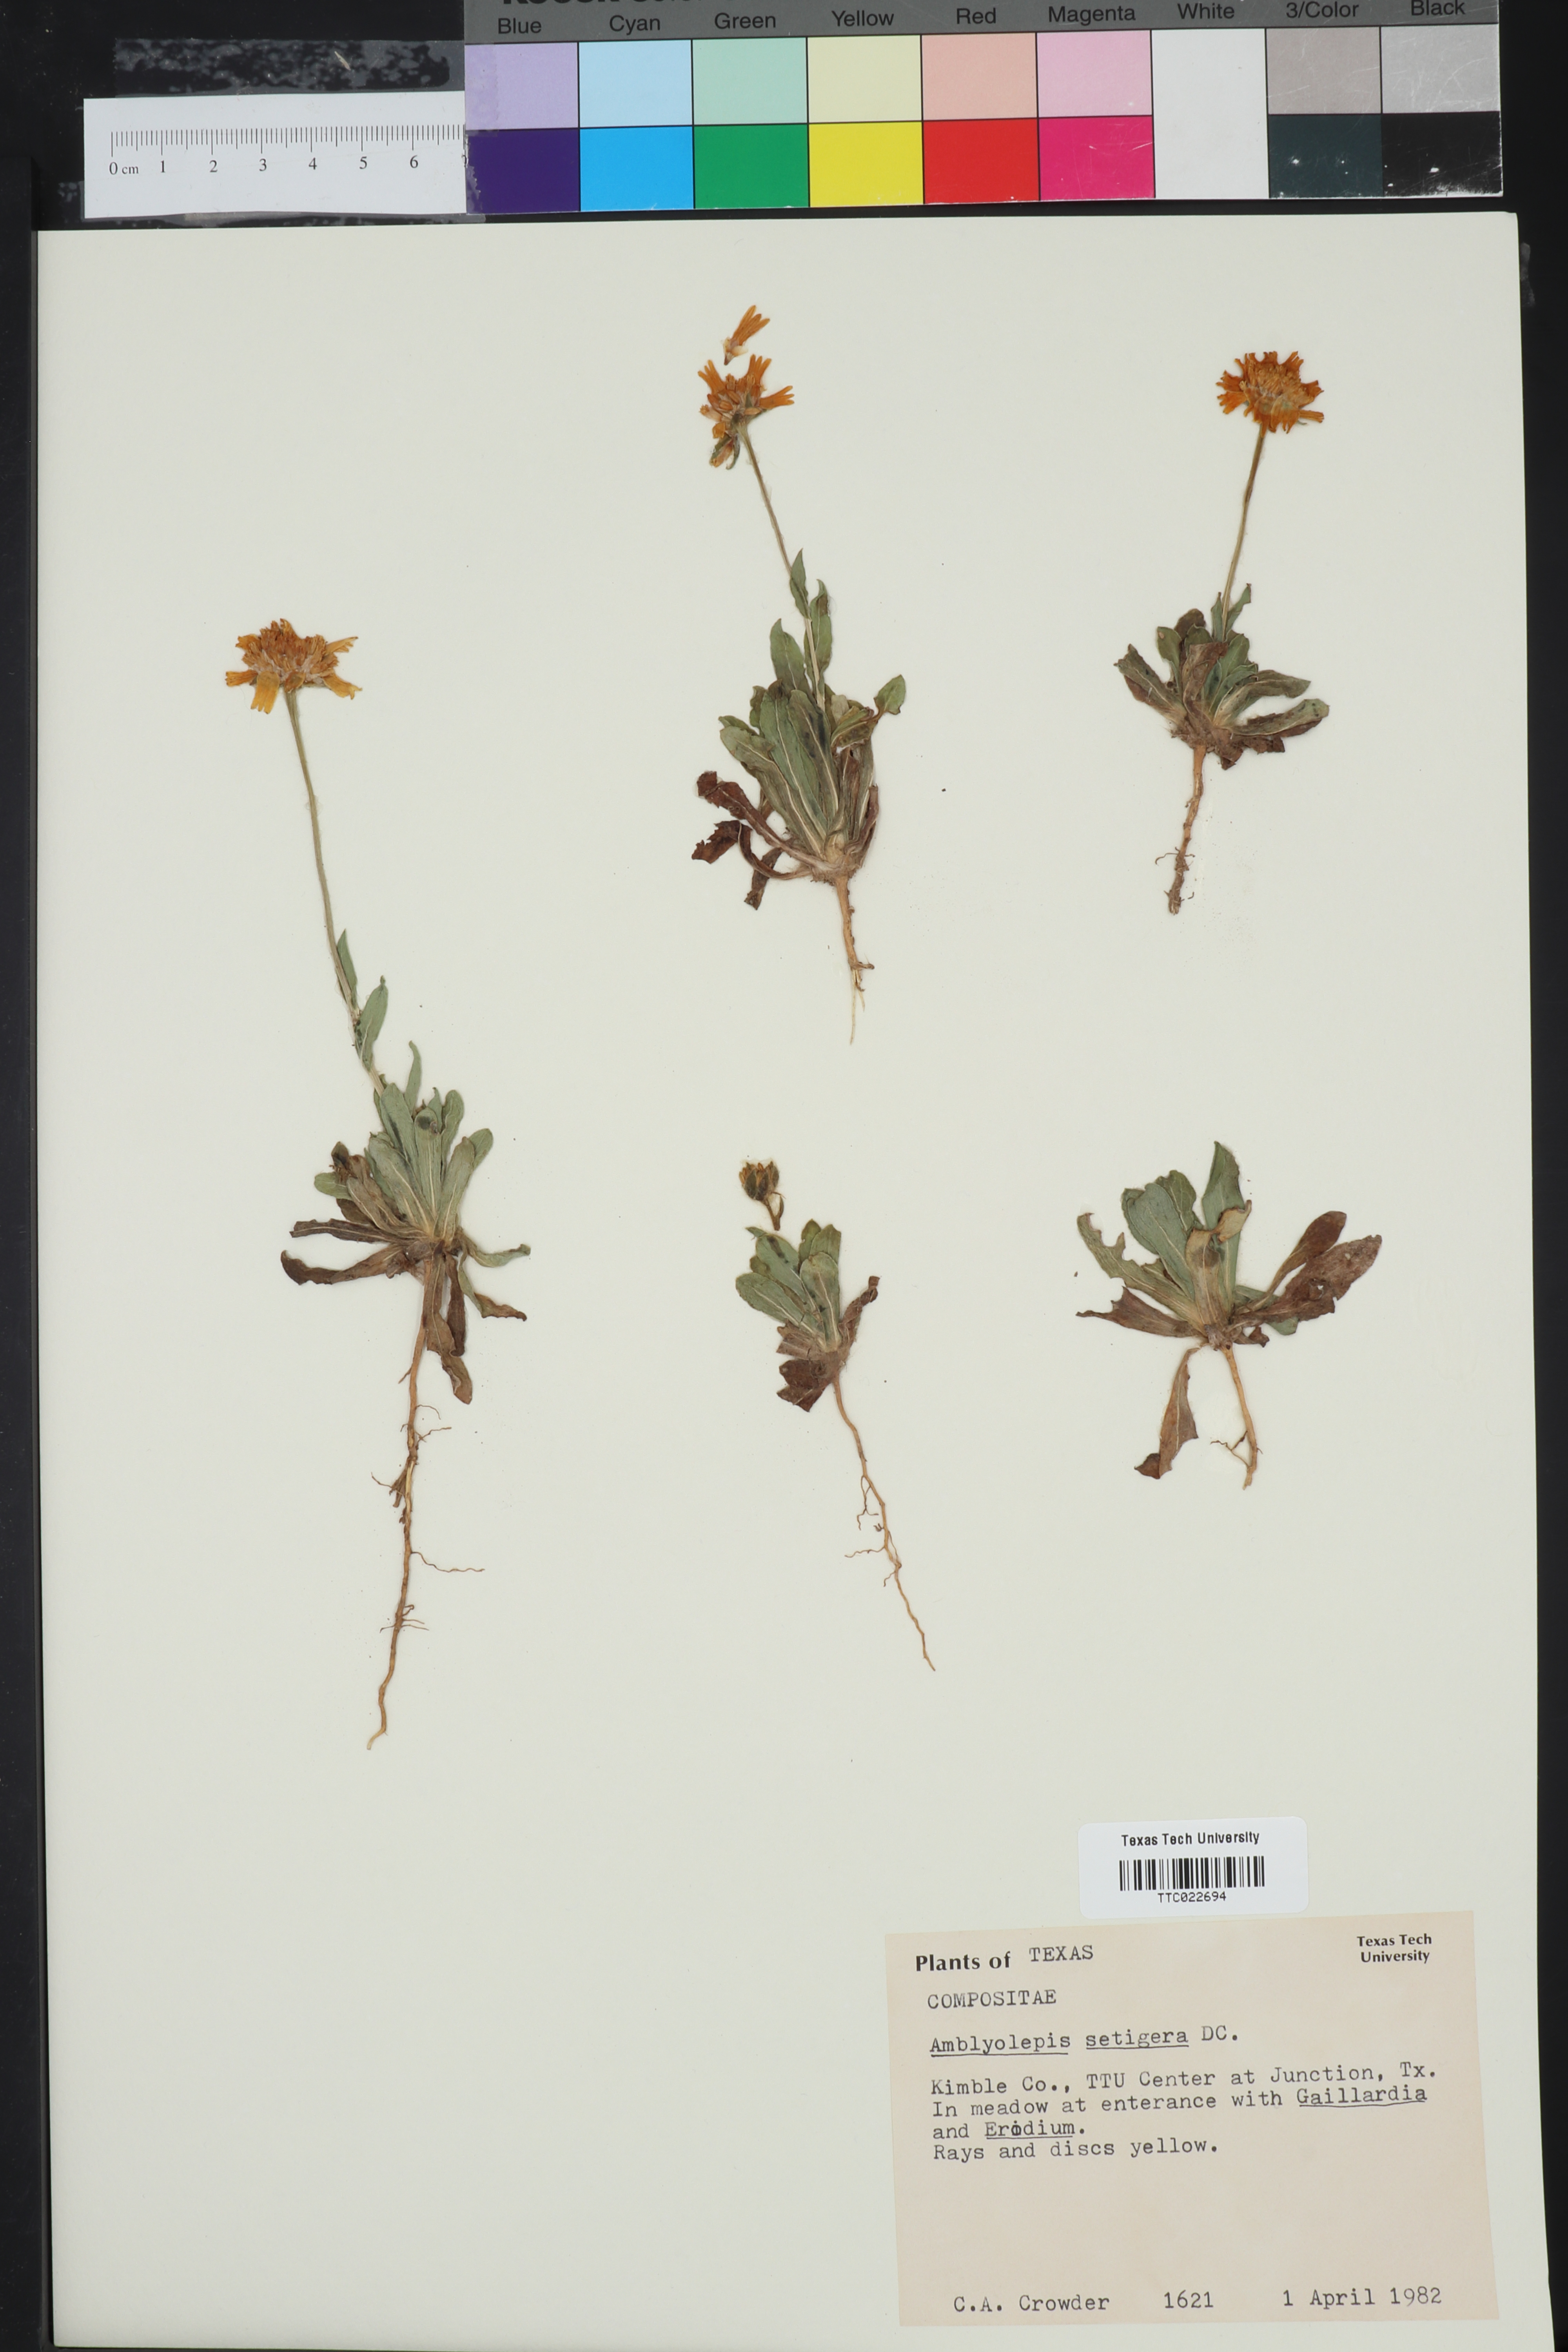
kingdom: Plantae
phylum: Tracheophyta
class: Magnoliopsida
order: Asterales
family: Asteraceae
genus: Amblyolepis
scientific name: Amblyolepis setigera
